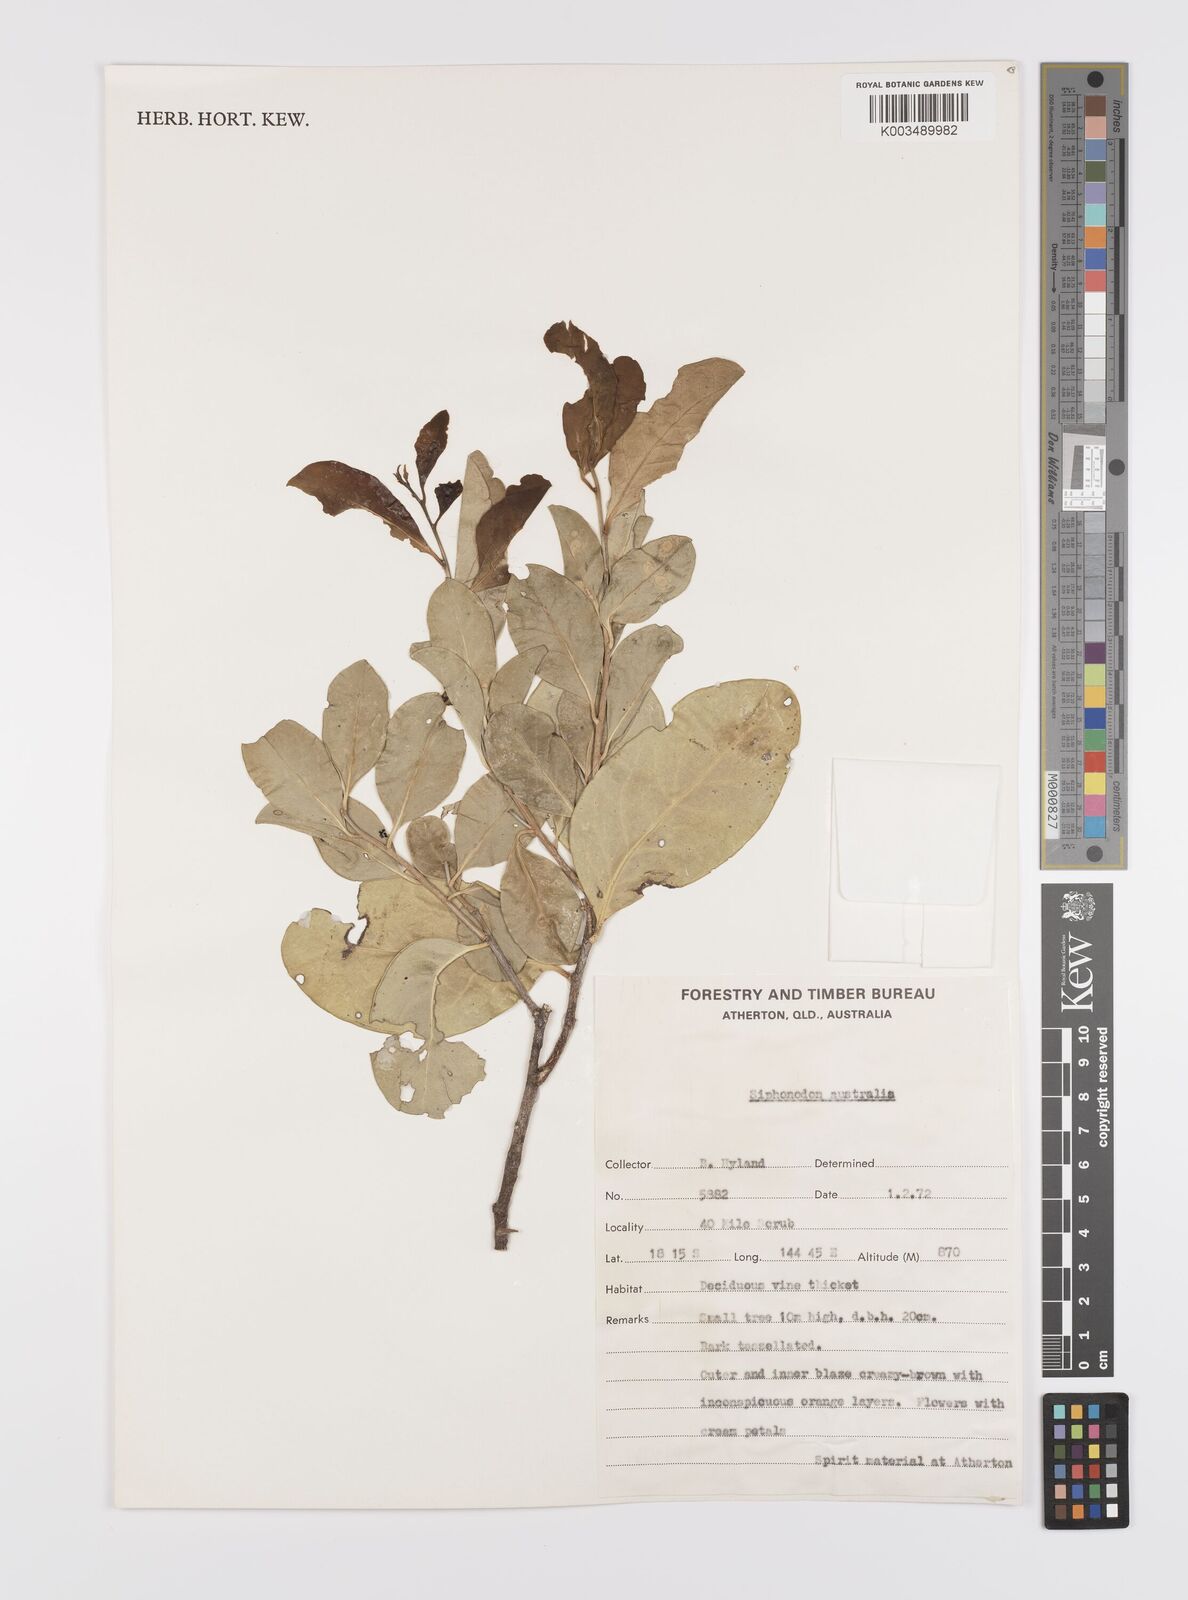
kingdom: Plantae
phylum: Tracheophyta
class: Magnoliopsida
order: Celastrales
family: Celastraceae
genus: Siphonodon
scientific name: Siphonodon australis
